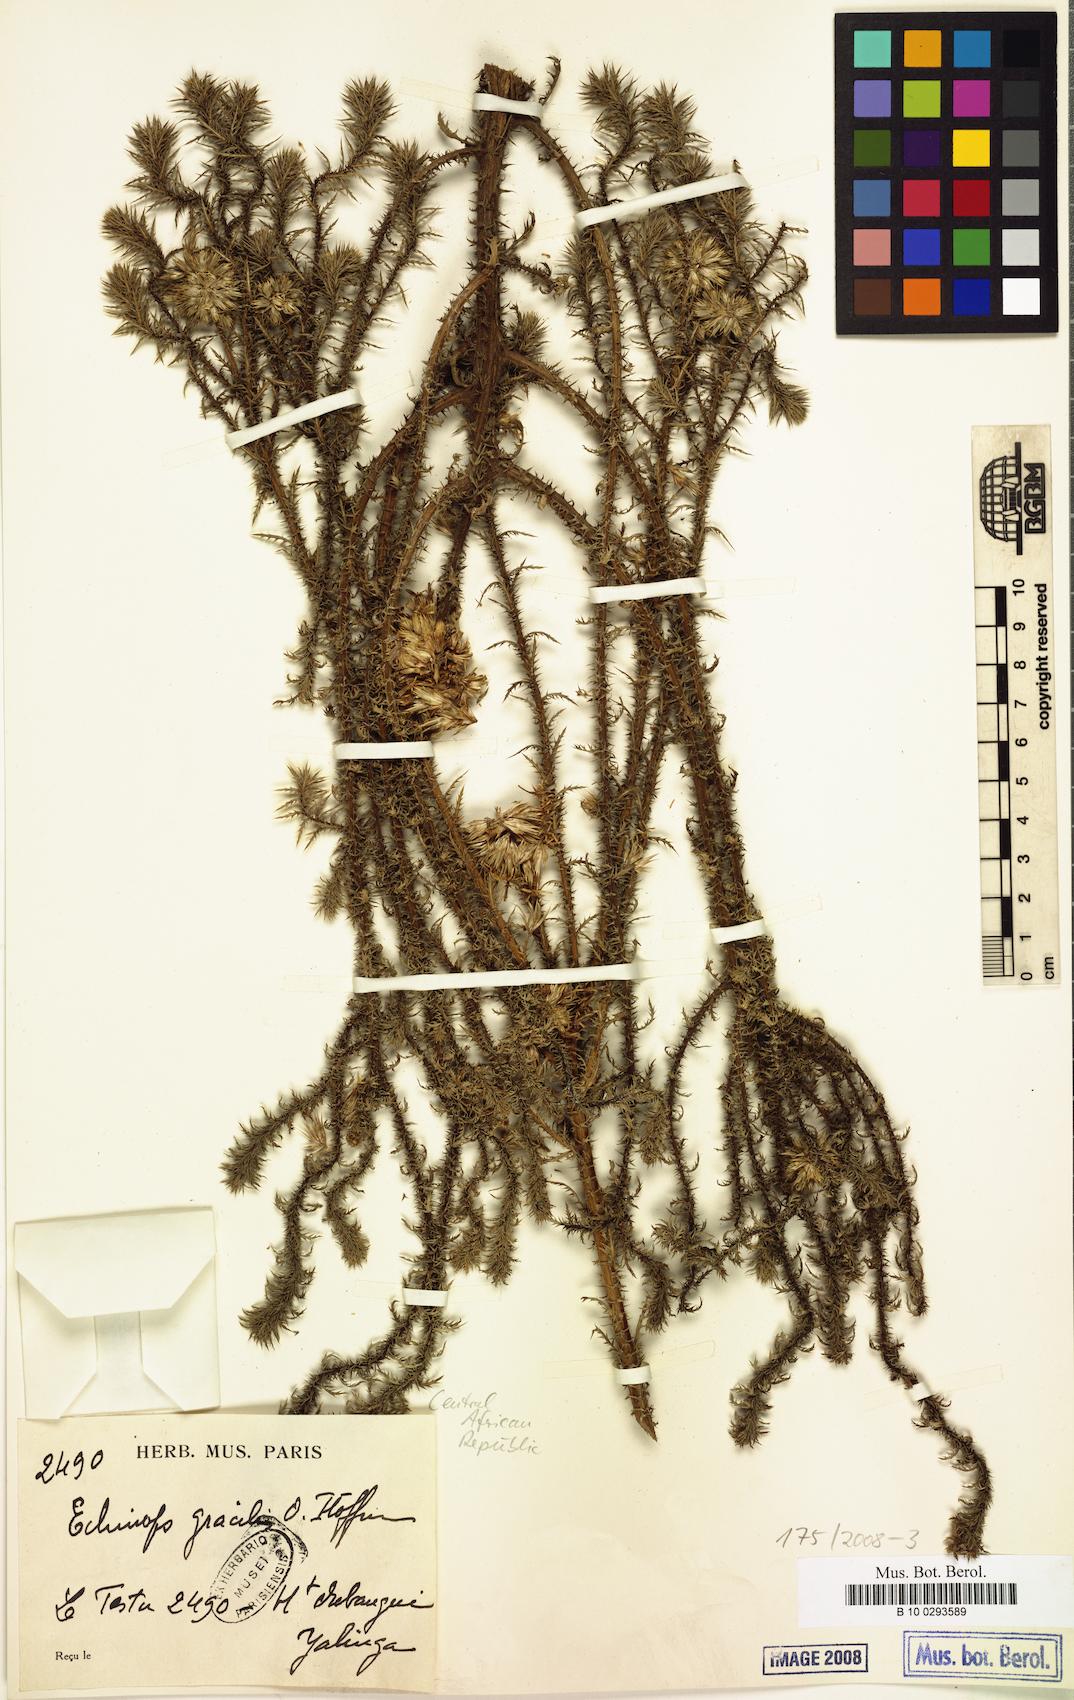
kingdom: Plantae
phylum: Tracheophyta
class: Magnoliopsida
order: Asterales
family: Asteraceae
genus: Echinops
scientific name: Echinops gracilis
